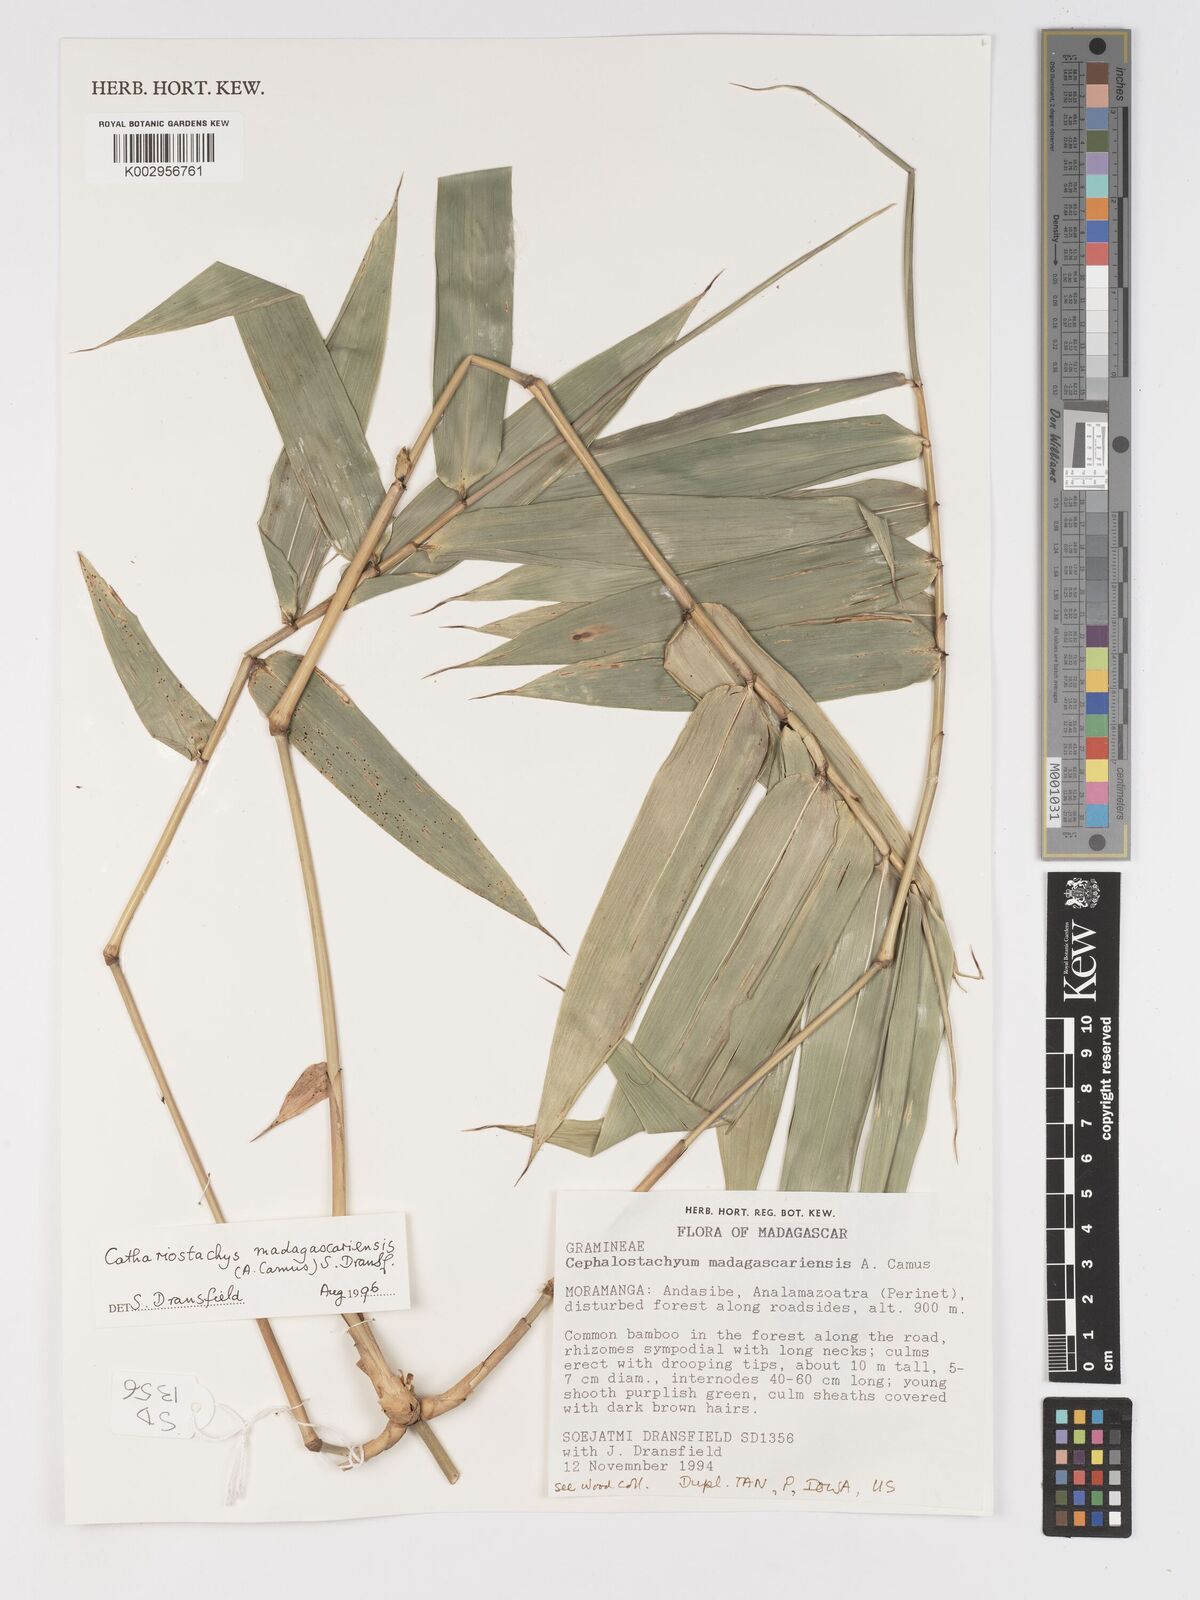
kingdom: Plantae
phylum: Tracheophyta
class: Liliopsida
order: Poales
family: Poaceae
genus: Cathariostachys
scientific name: Cathariostachys madagascariensis
